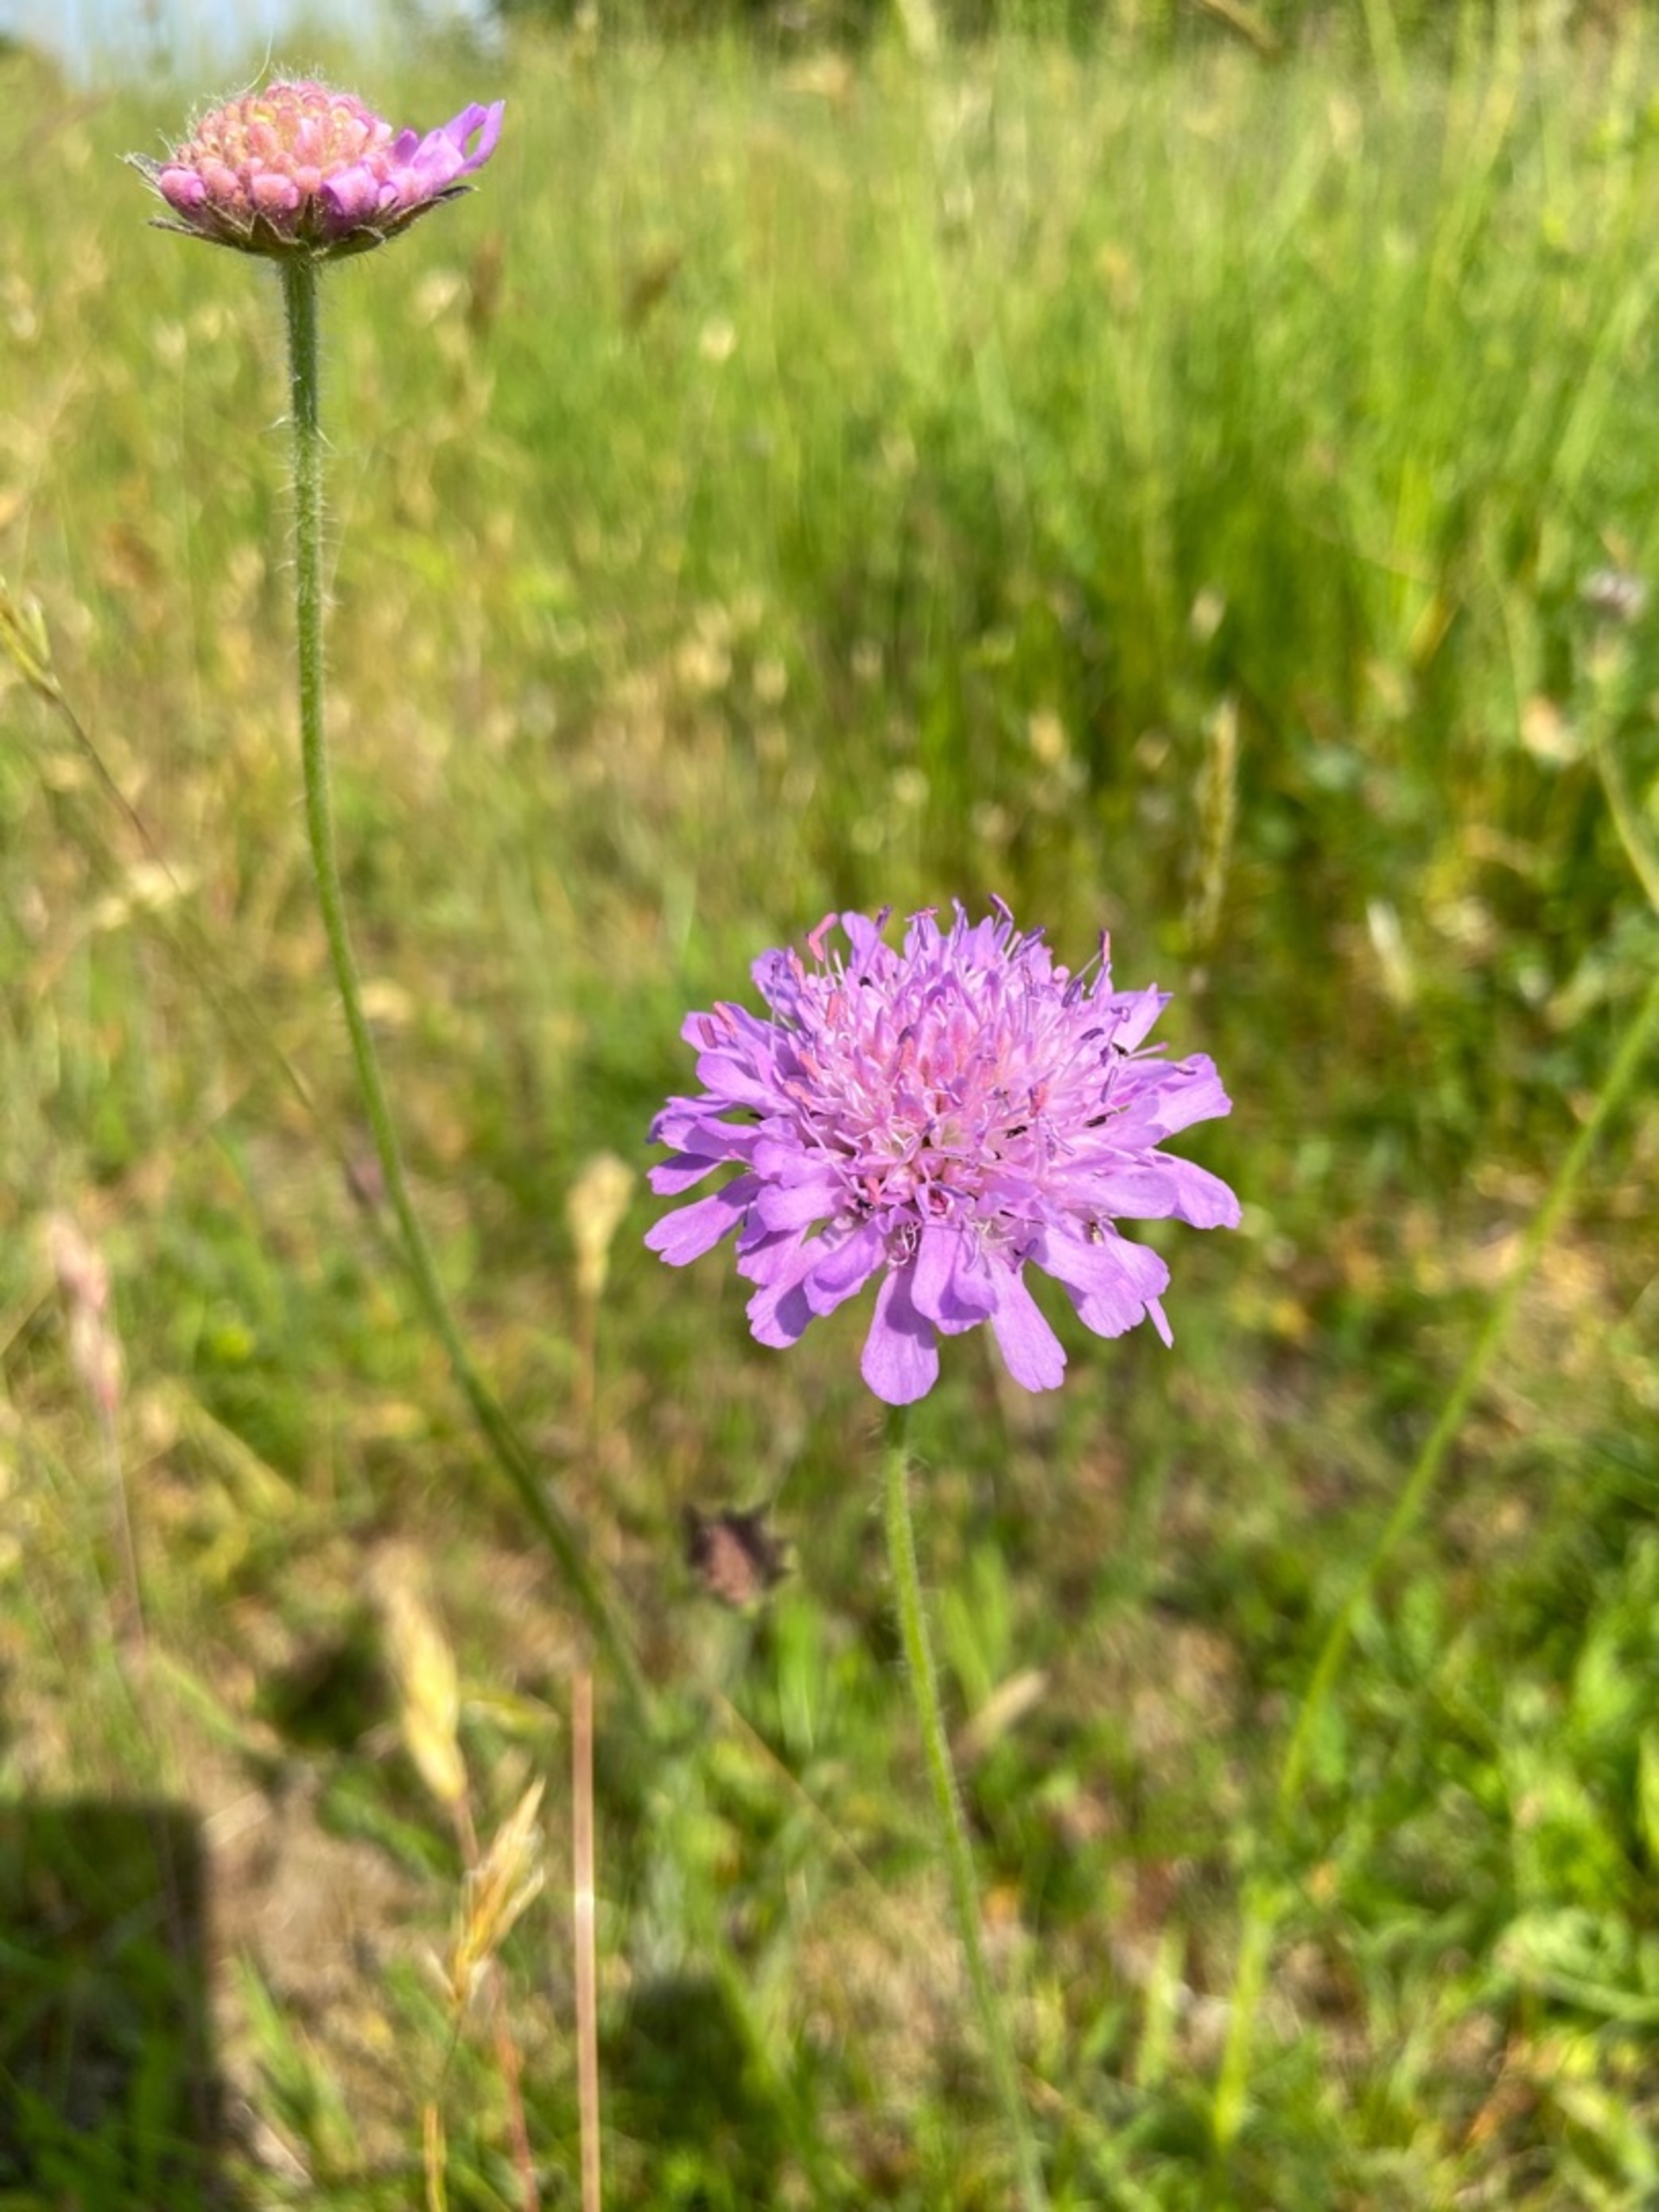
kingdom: Plantae
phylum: Tracheophyta
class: Magnoliopsida
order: Dipsacales
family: Caprifoliaceae
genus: Knautia
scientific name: Knautia arvensis
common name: Blåhat
